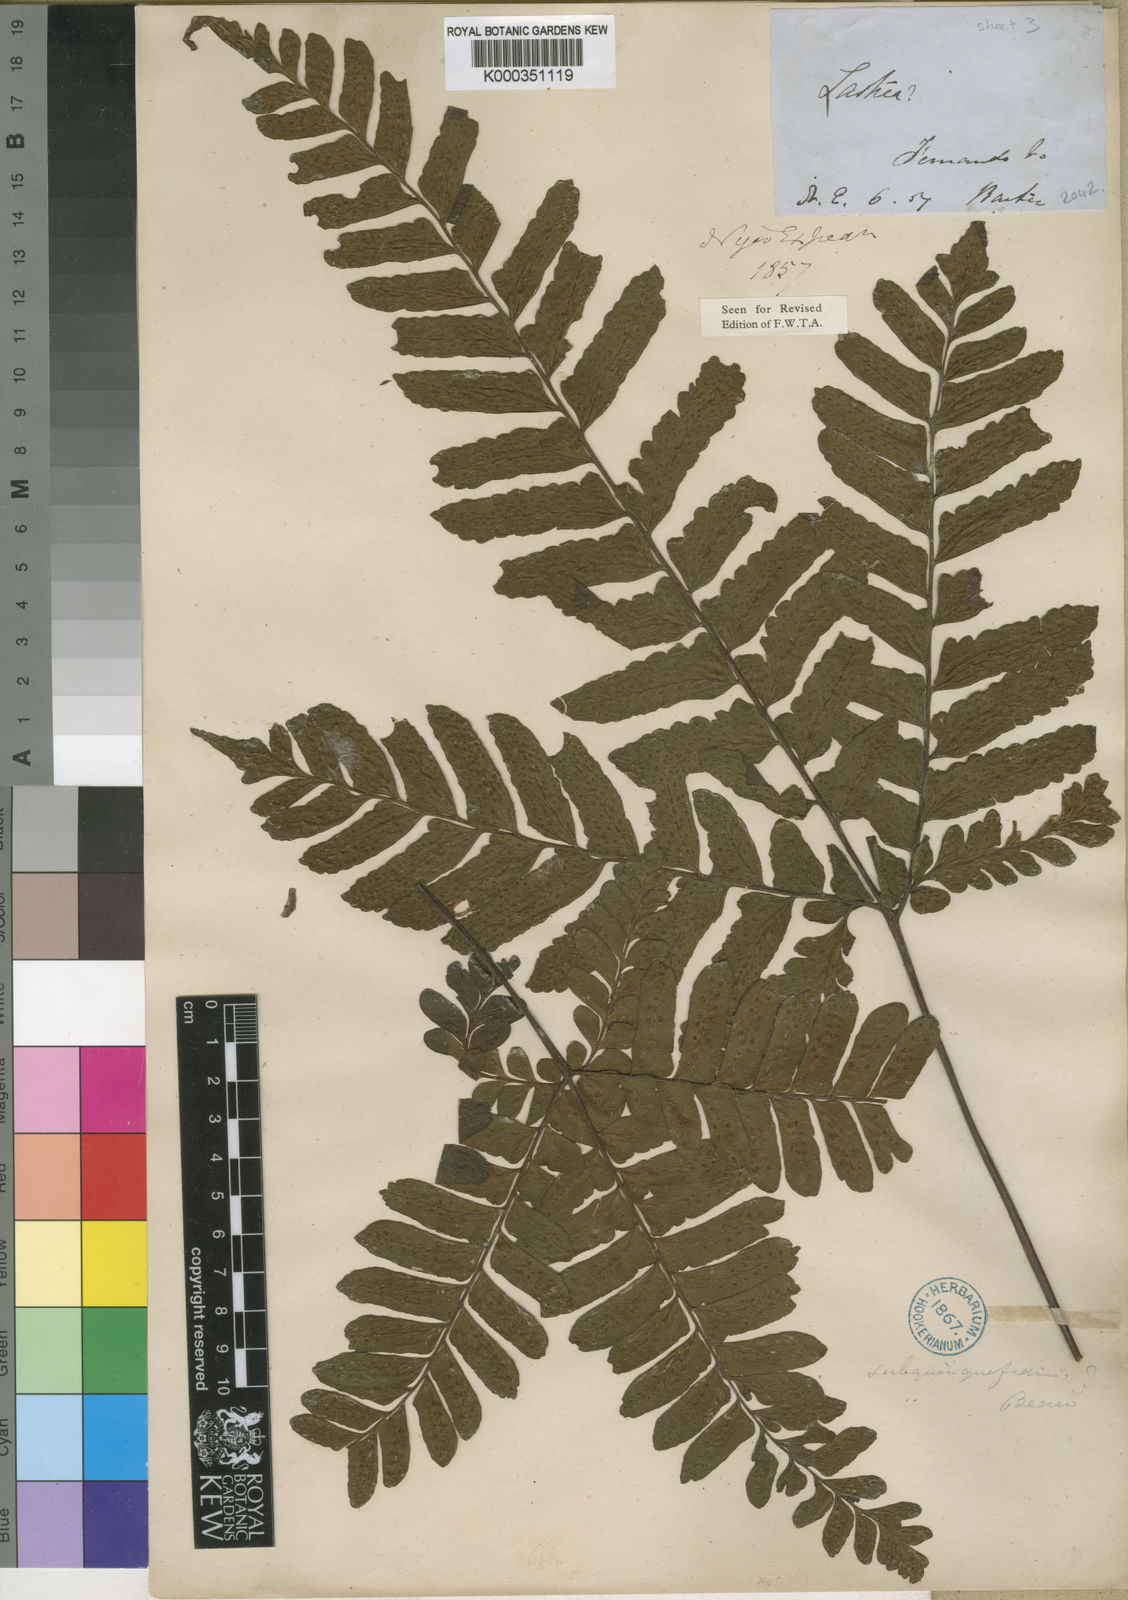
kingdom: Plantae
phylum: Tracheophyta
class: Polypodiopsida
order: Polypodiales
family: Tectariaceae
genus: Triplophyllum
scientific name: Triplophyllum securidiforme
